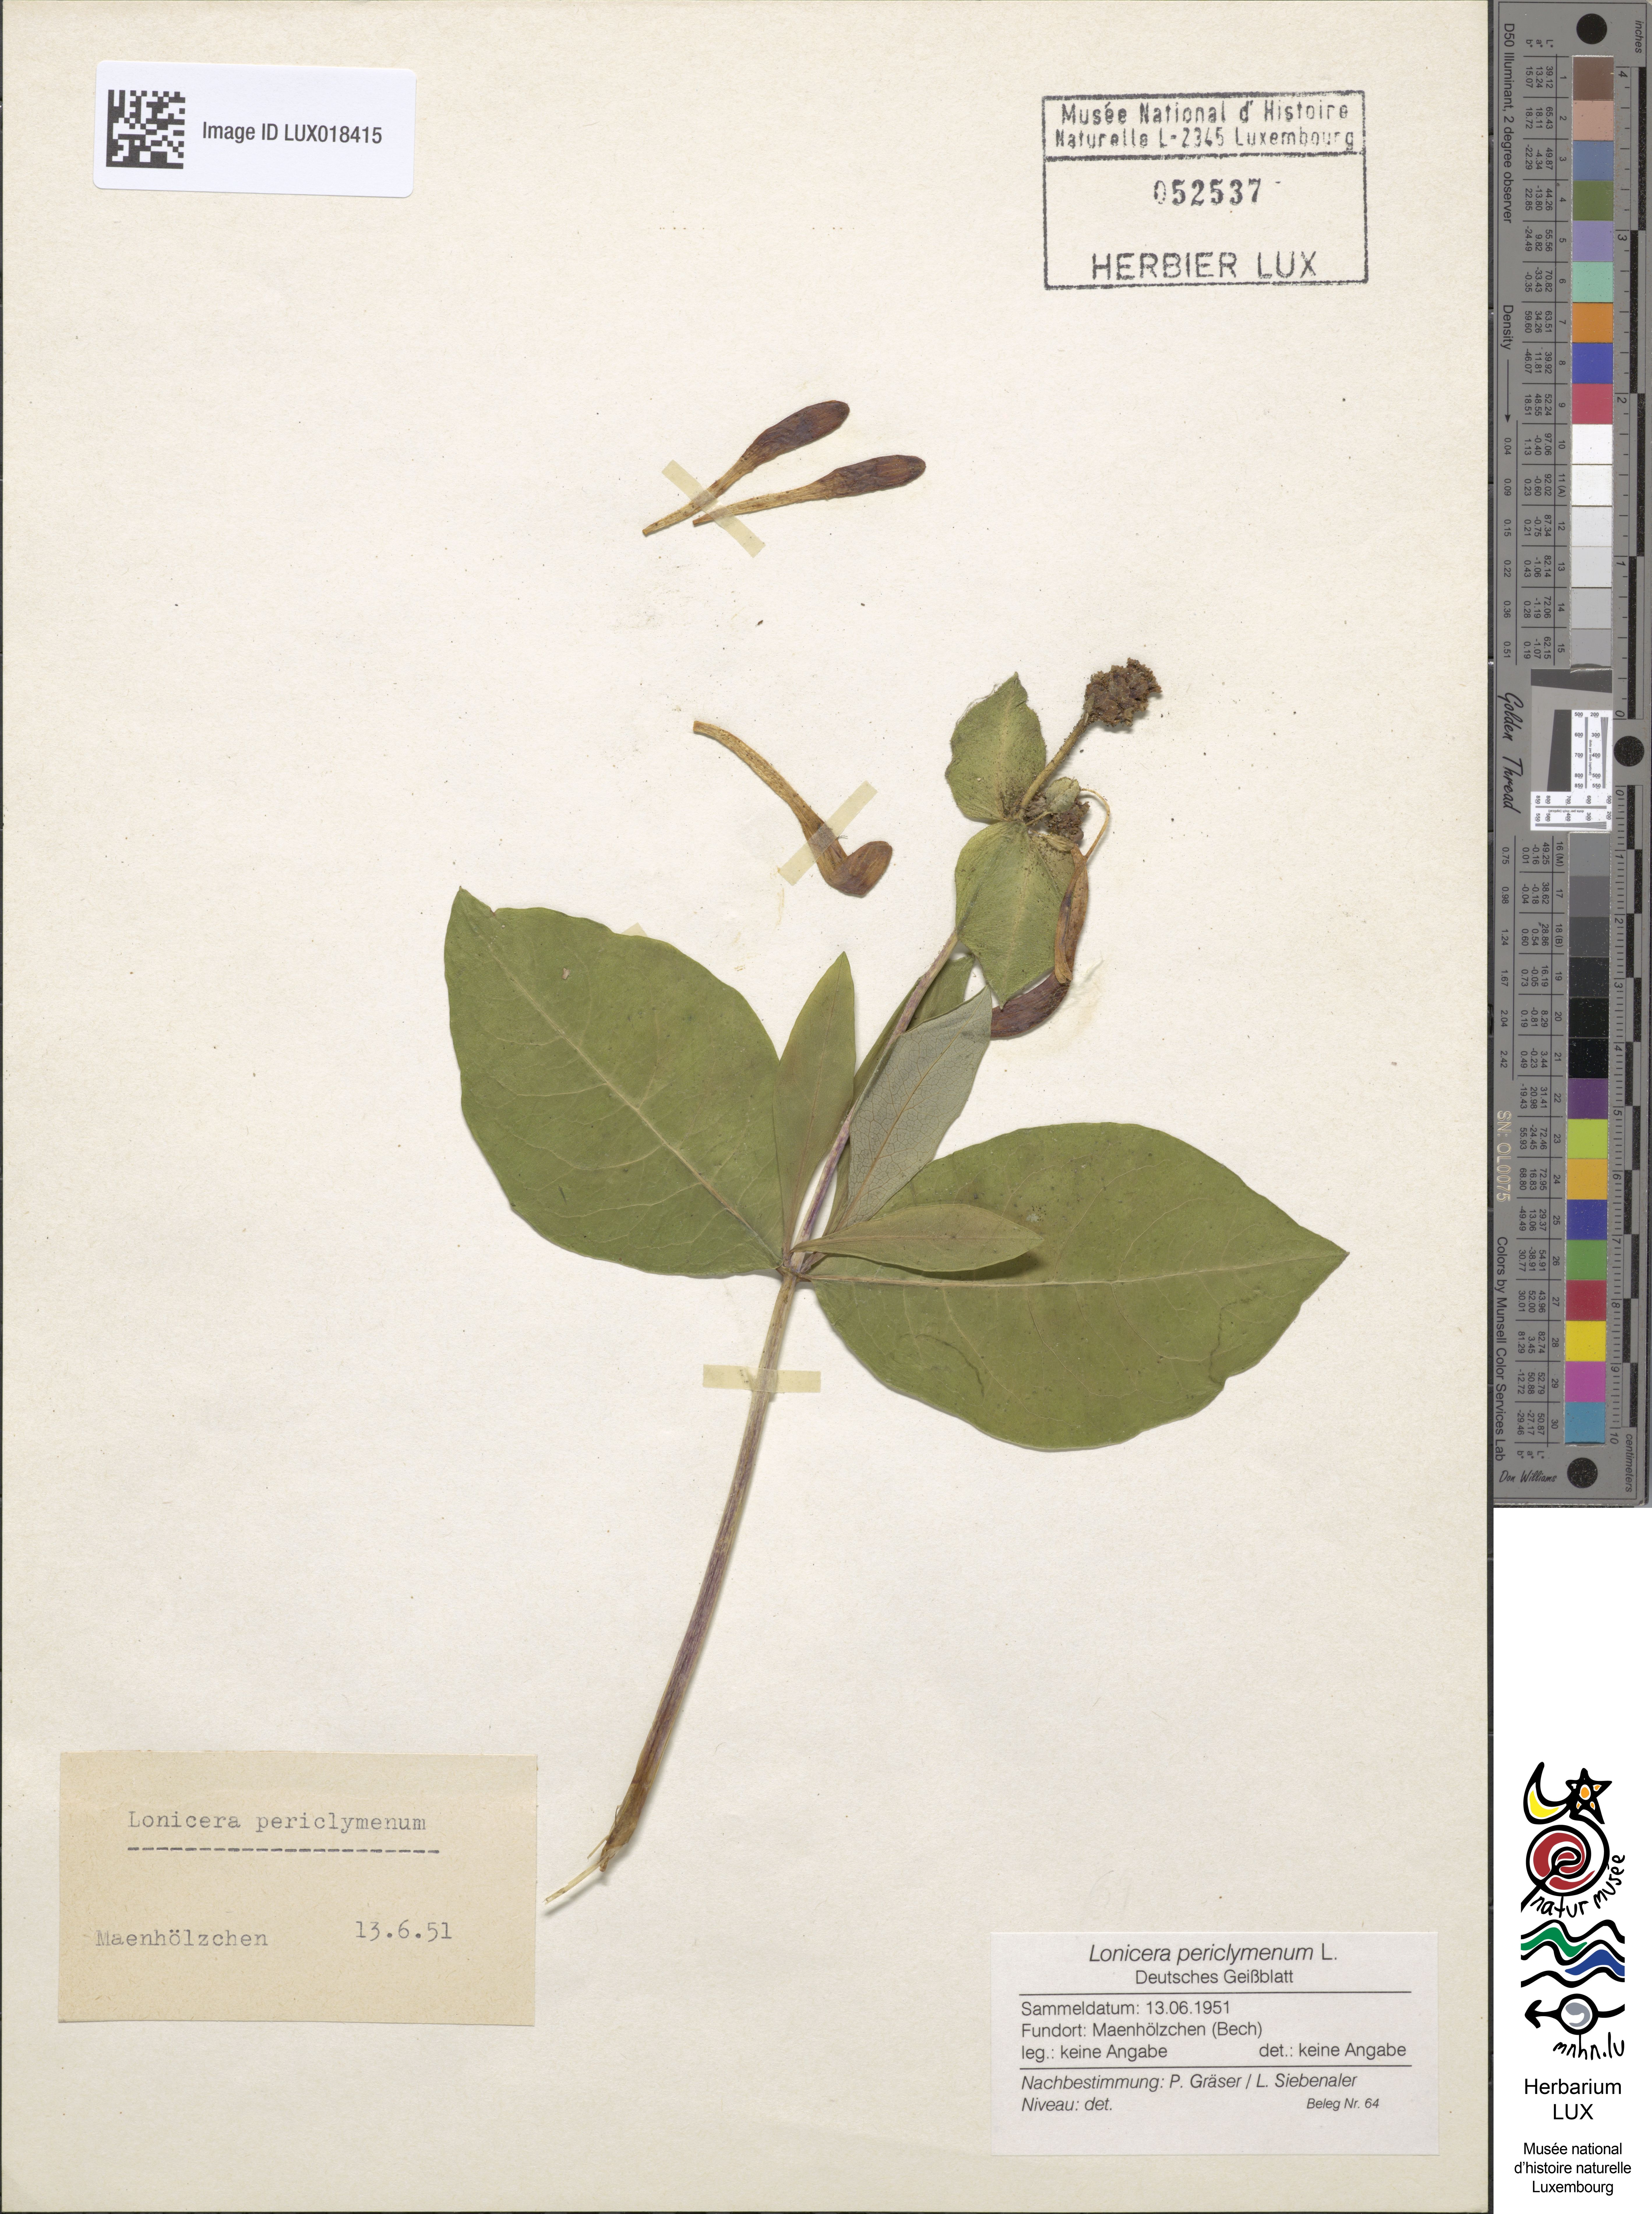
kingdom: Plantae
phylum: Tracheophyta
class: Magnoliopsida
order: Dipsacales
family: Caprifoliaceae
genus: Lonicera
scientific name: Lonicera periclymenum
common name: European honeysuckle
